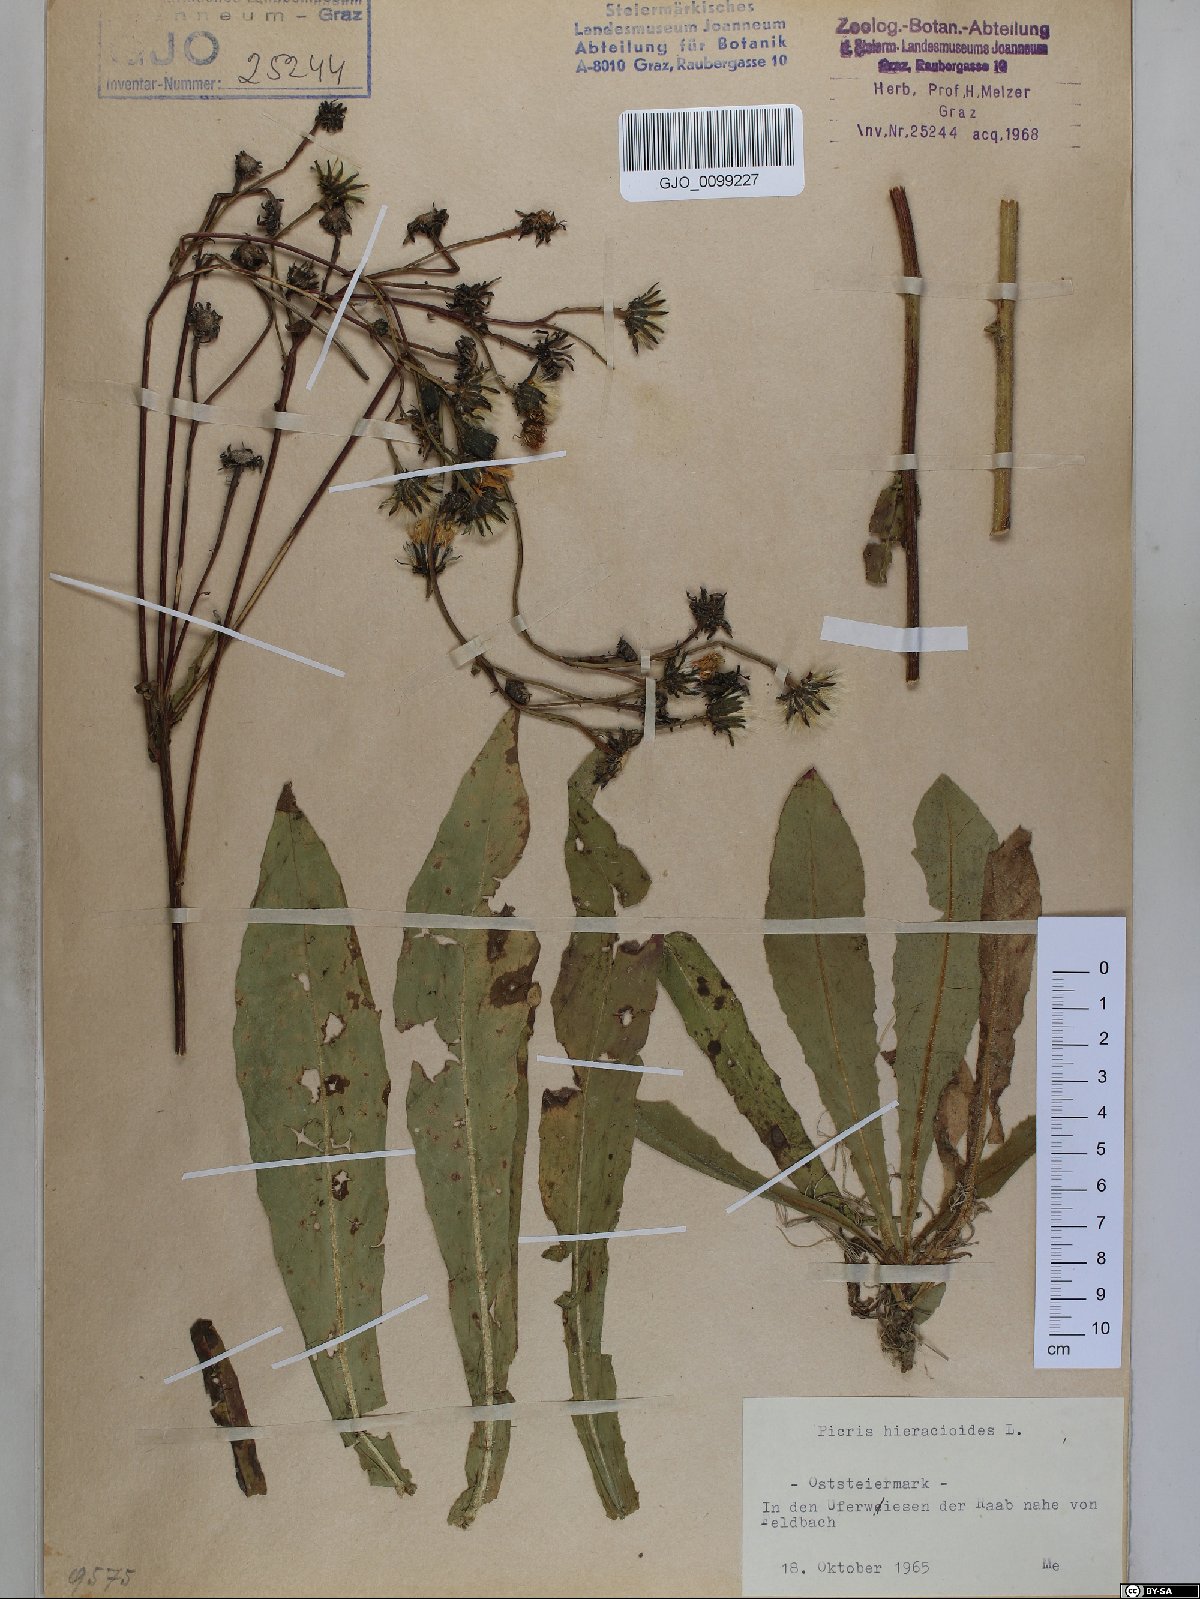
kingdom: Plantae
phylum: Tracheophyta
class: Magnoliopsida
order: Asterales
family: Asteraceae
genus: Picris
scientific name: Picris hieracioides
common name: Hawkweed oxtongue
